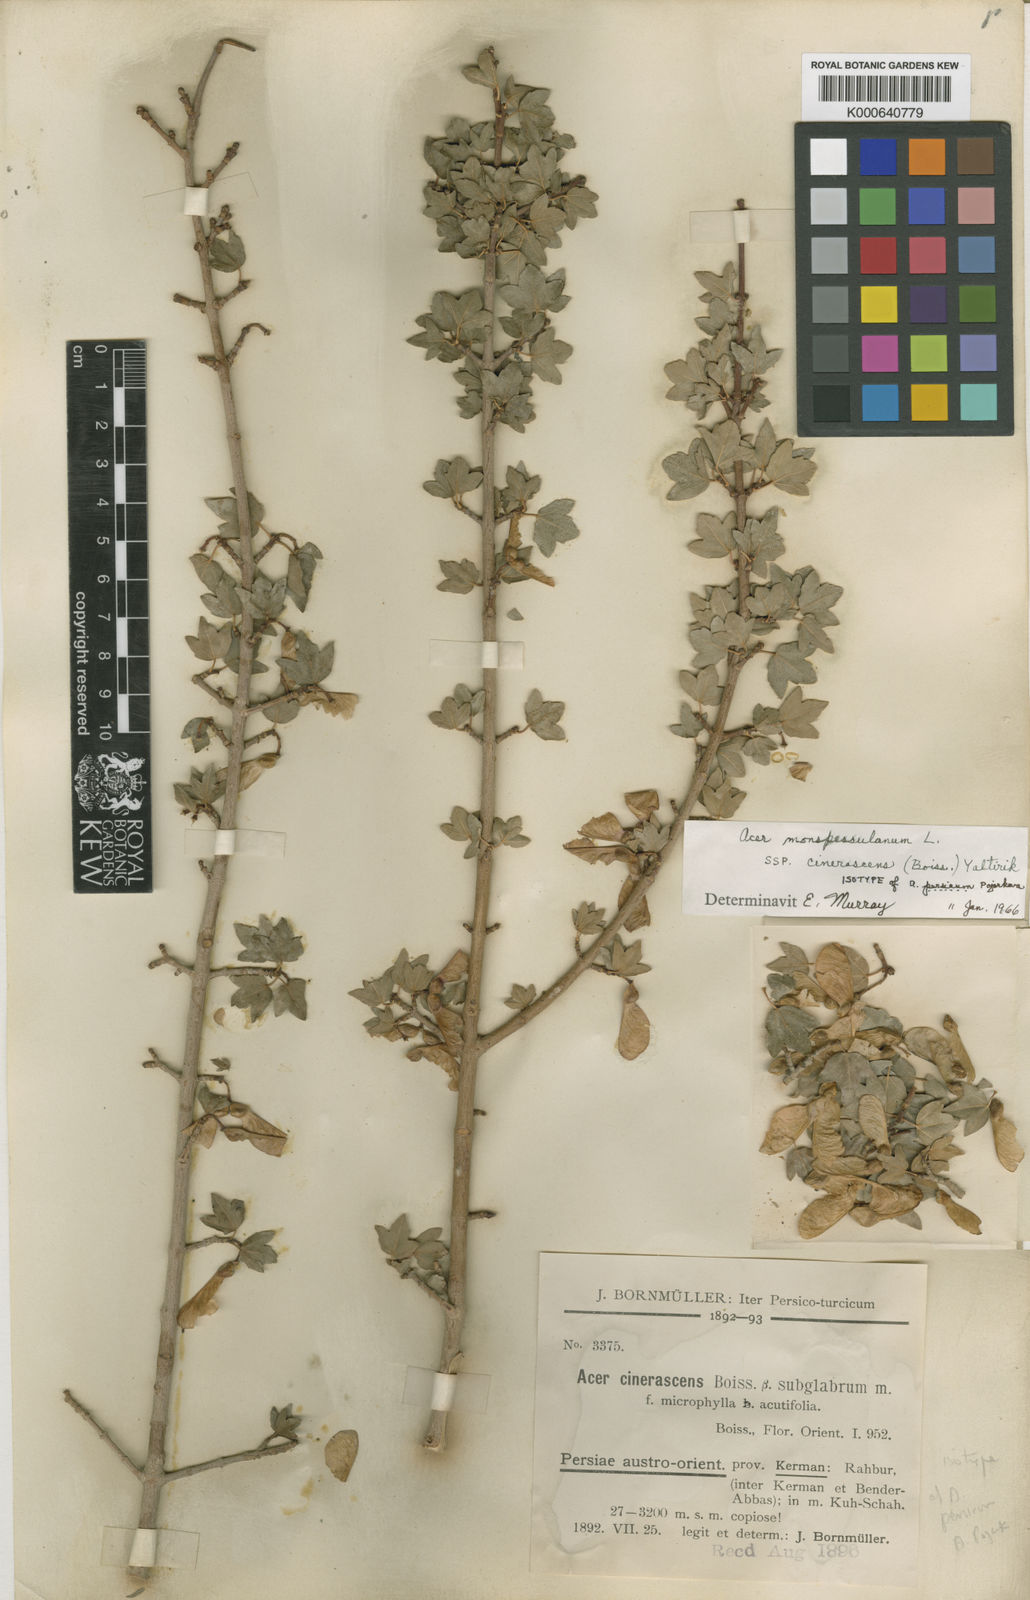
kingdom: Plantae
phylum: Tracheophyta
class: Magnoliopsida
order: Sapindales
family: Sapindaceae
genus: Acer
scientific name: Acer monspessulanum
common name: Montpellier maple
